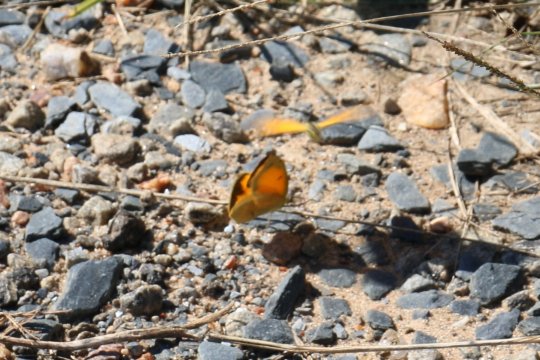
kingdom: Animalia
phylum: Arthropoda
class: Insecta
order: Lepidoptera
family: Pieridae
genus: Abaeis
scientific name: Abaeis nicippe
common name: Sleepy Orange
